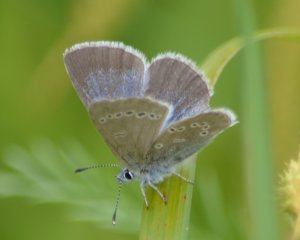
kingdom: Animalia
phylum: Arthropoda
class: Insecta
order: Lepidoptera
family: Lycaenidae
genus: Glaucopsyche
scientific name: Glaucopsyche lygdamus
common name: Silvery Blue
